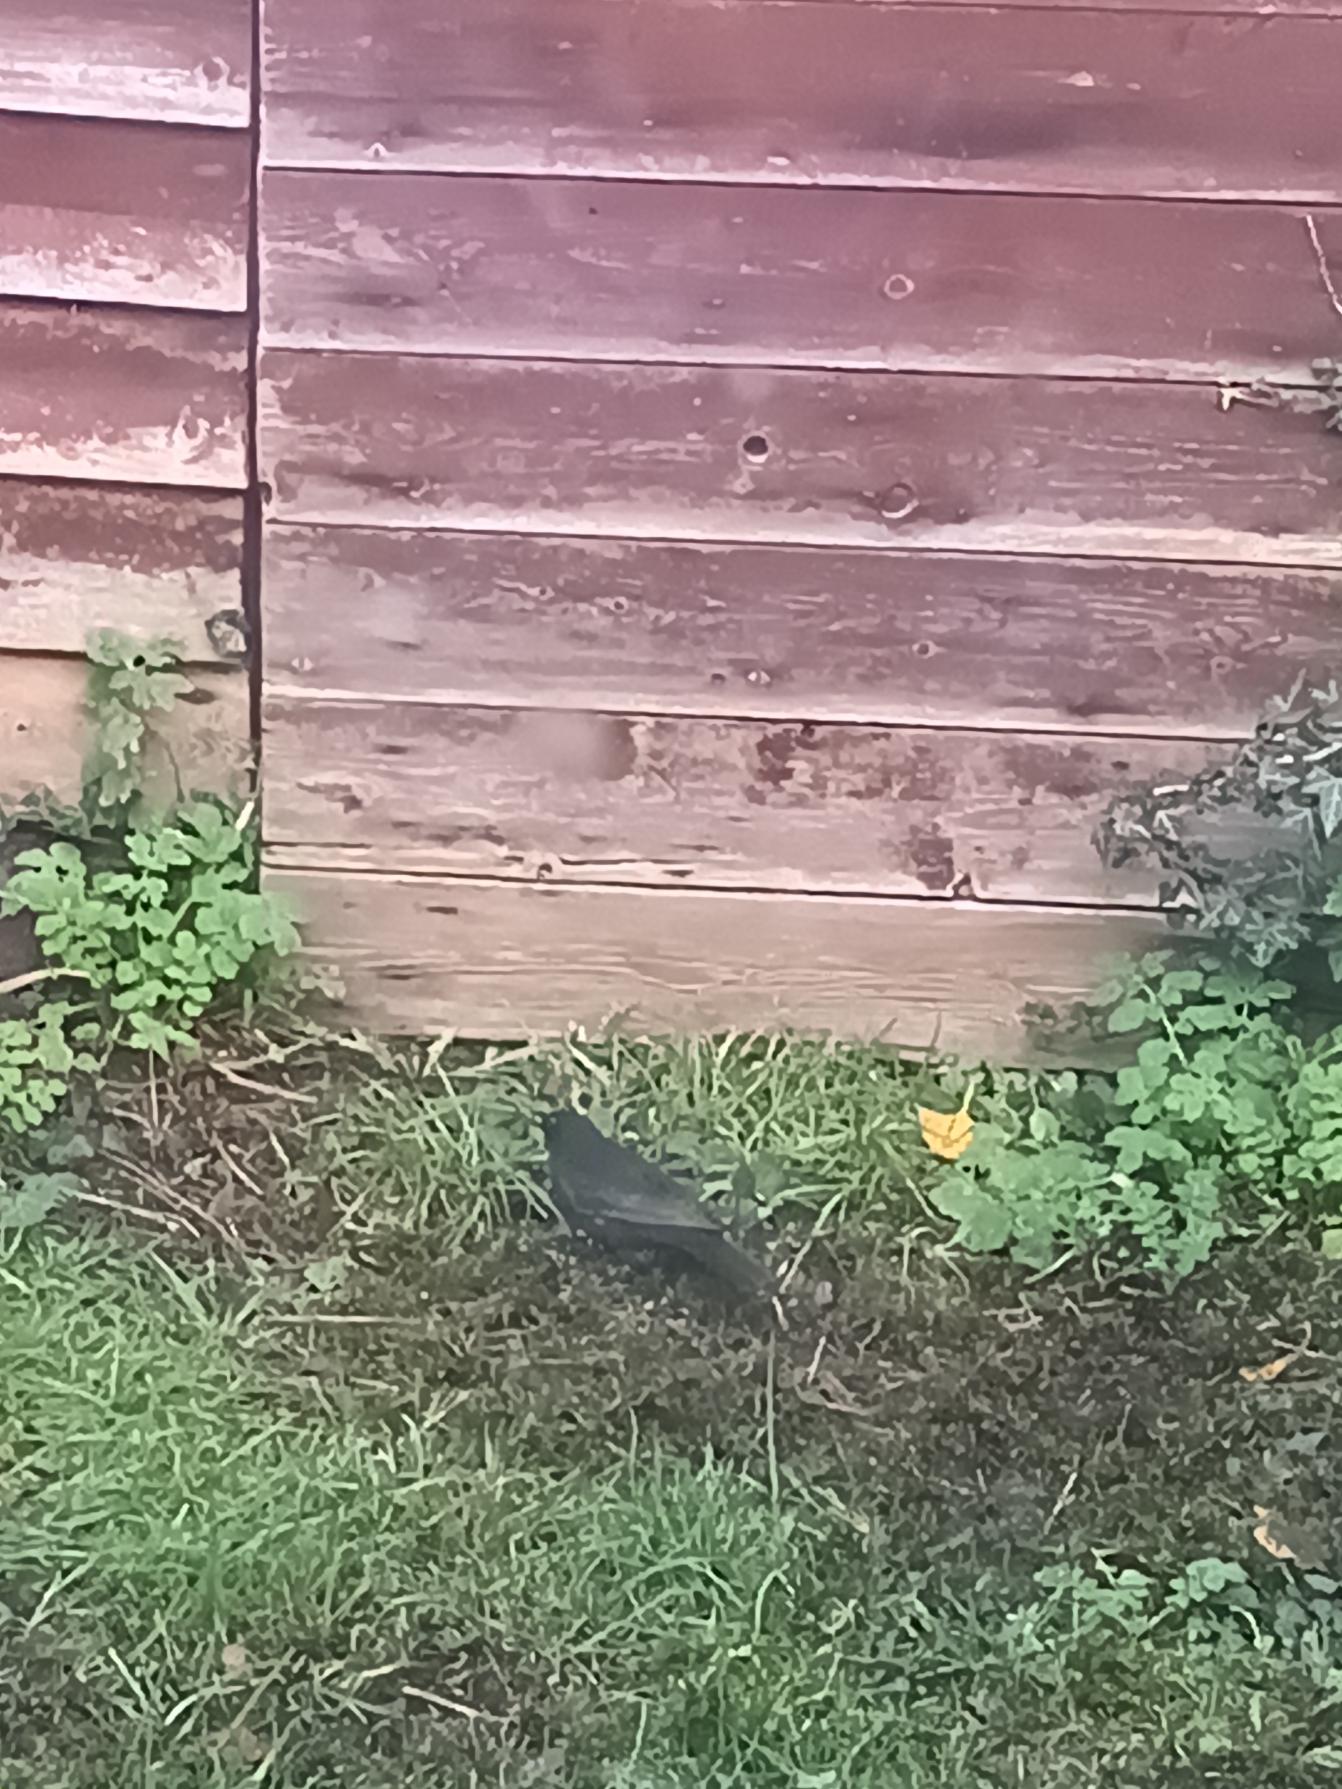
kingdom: Animalia
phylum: Chordata
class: Aves
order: Passeriformes
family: Turdidae
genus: Turdus
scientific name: Turdus merula
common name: Solsort
